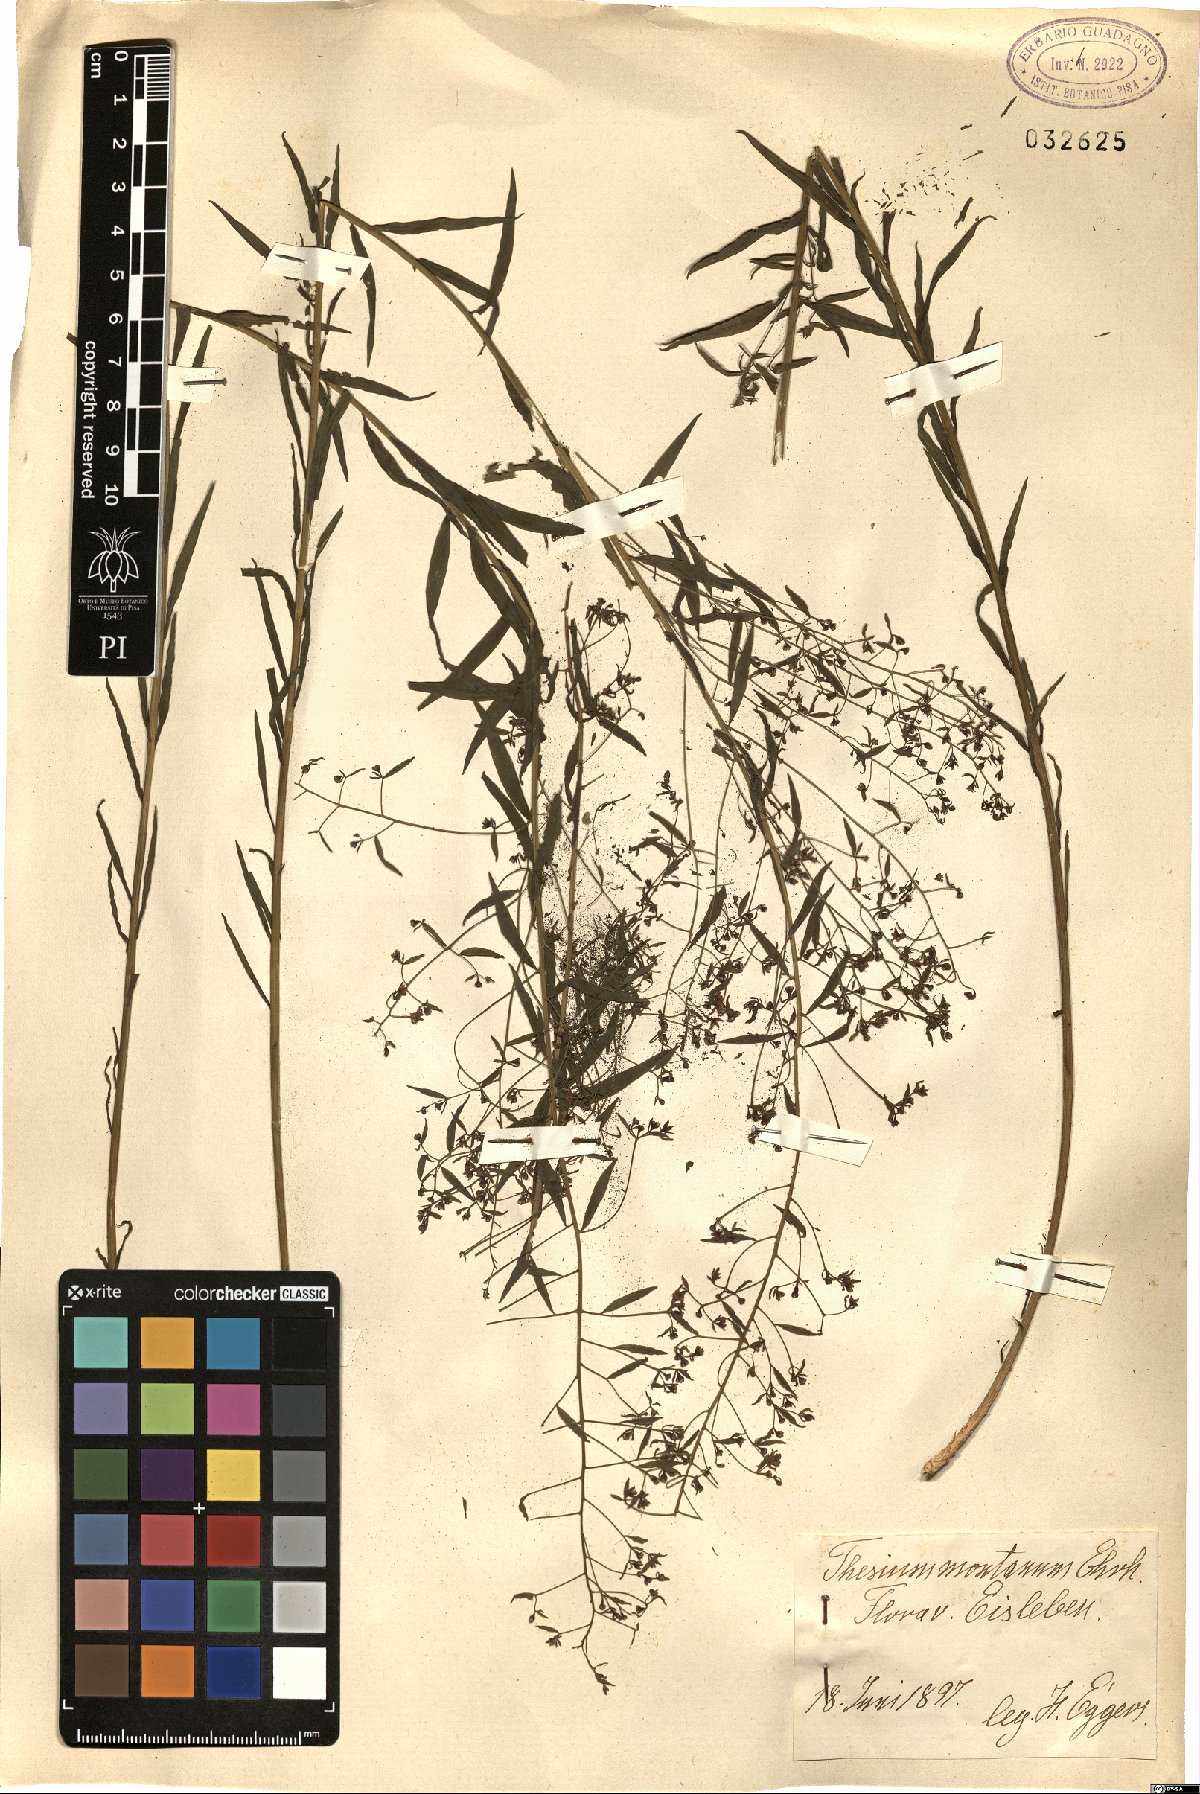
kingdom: Plantae
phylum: Tracheophyta
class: Magnoliopsida
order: Santalales
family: Thesiaceae
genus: Thesium
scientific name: Thesium bavarum
